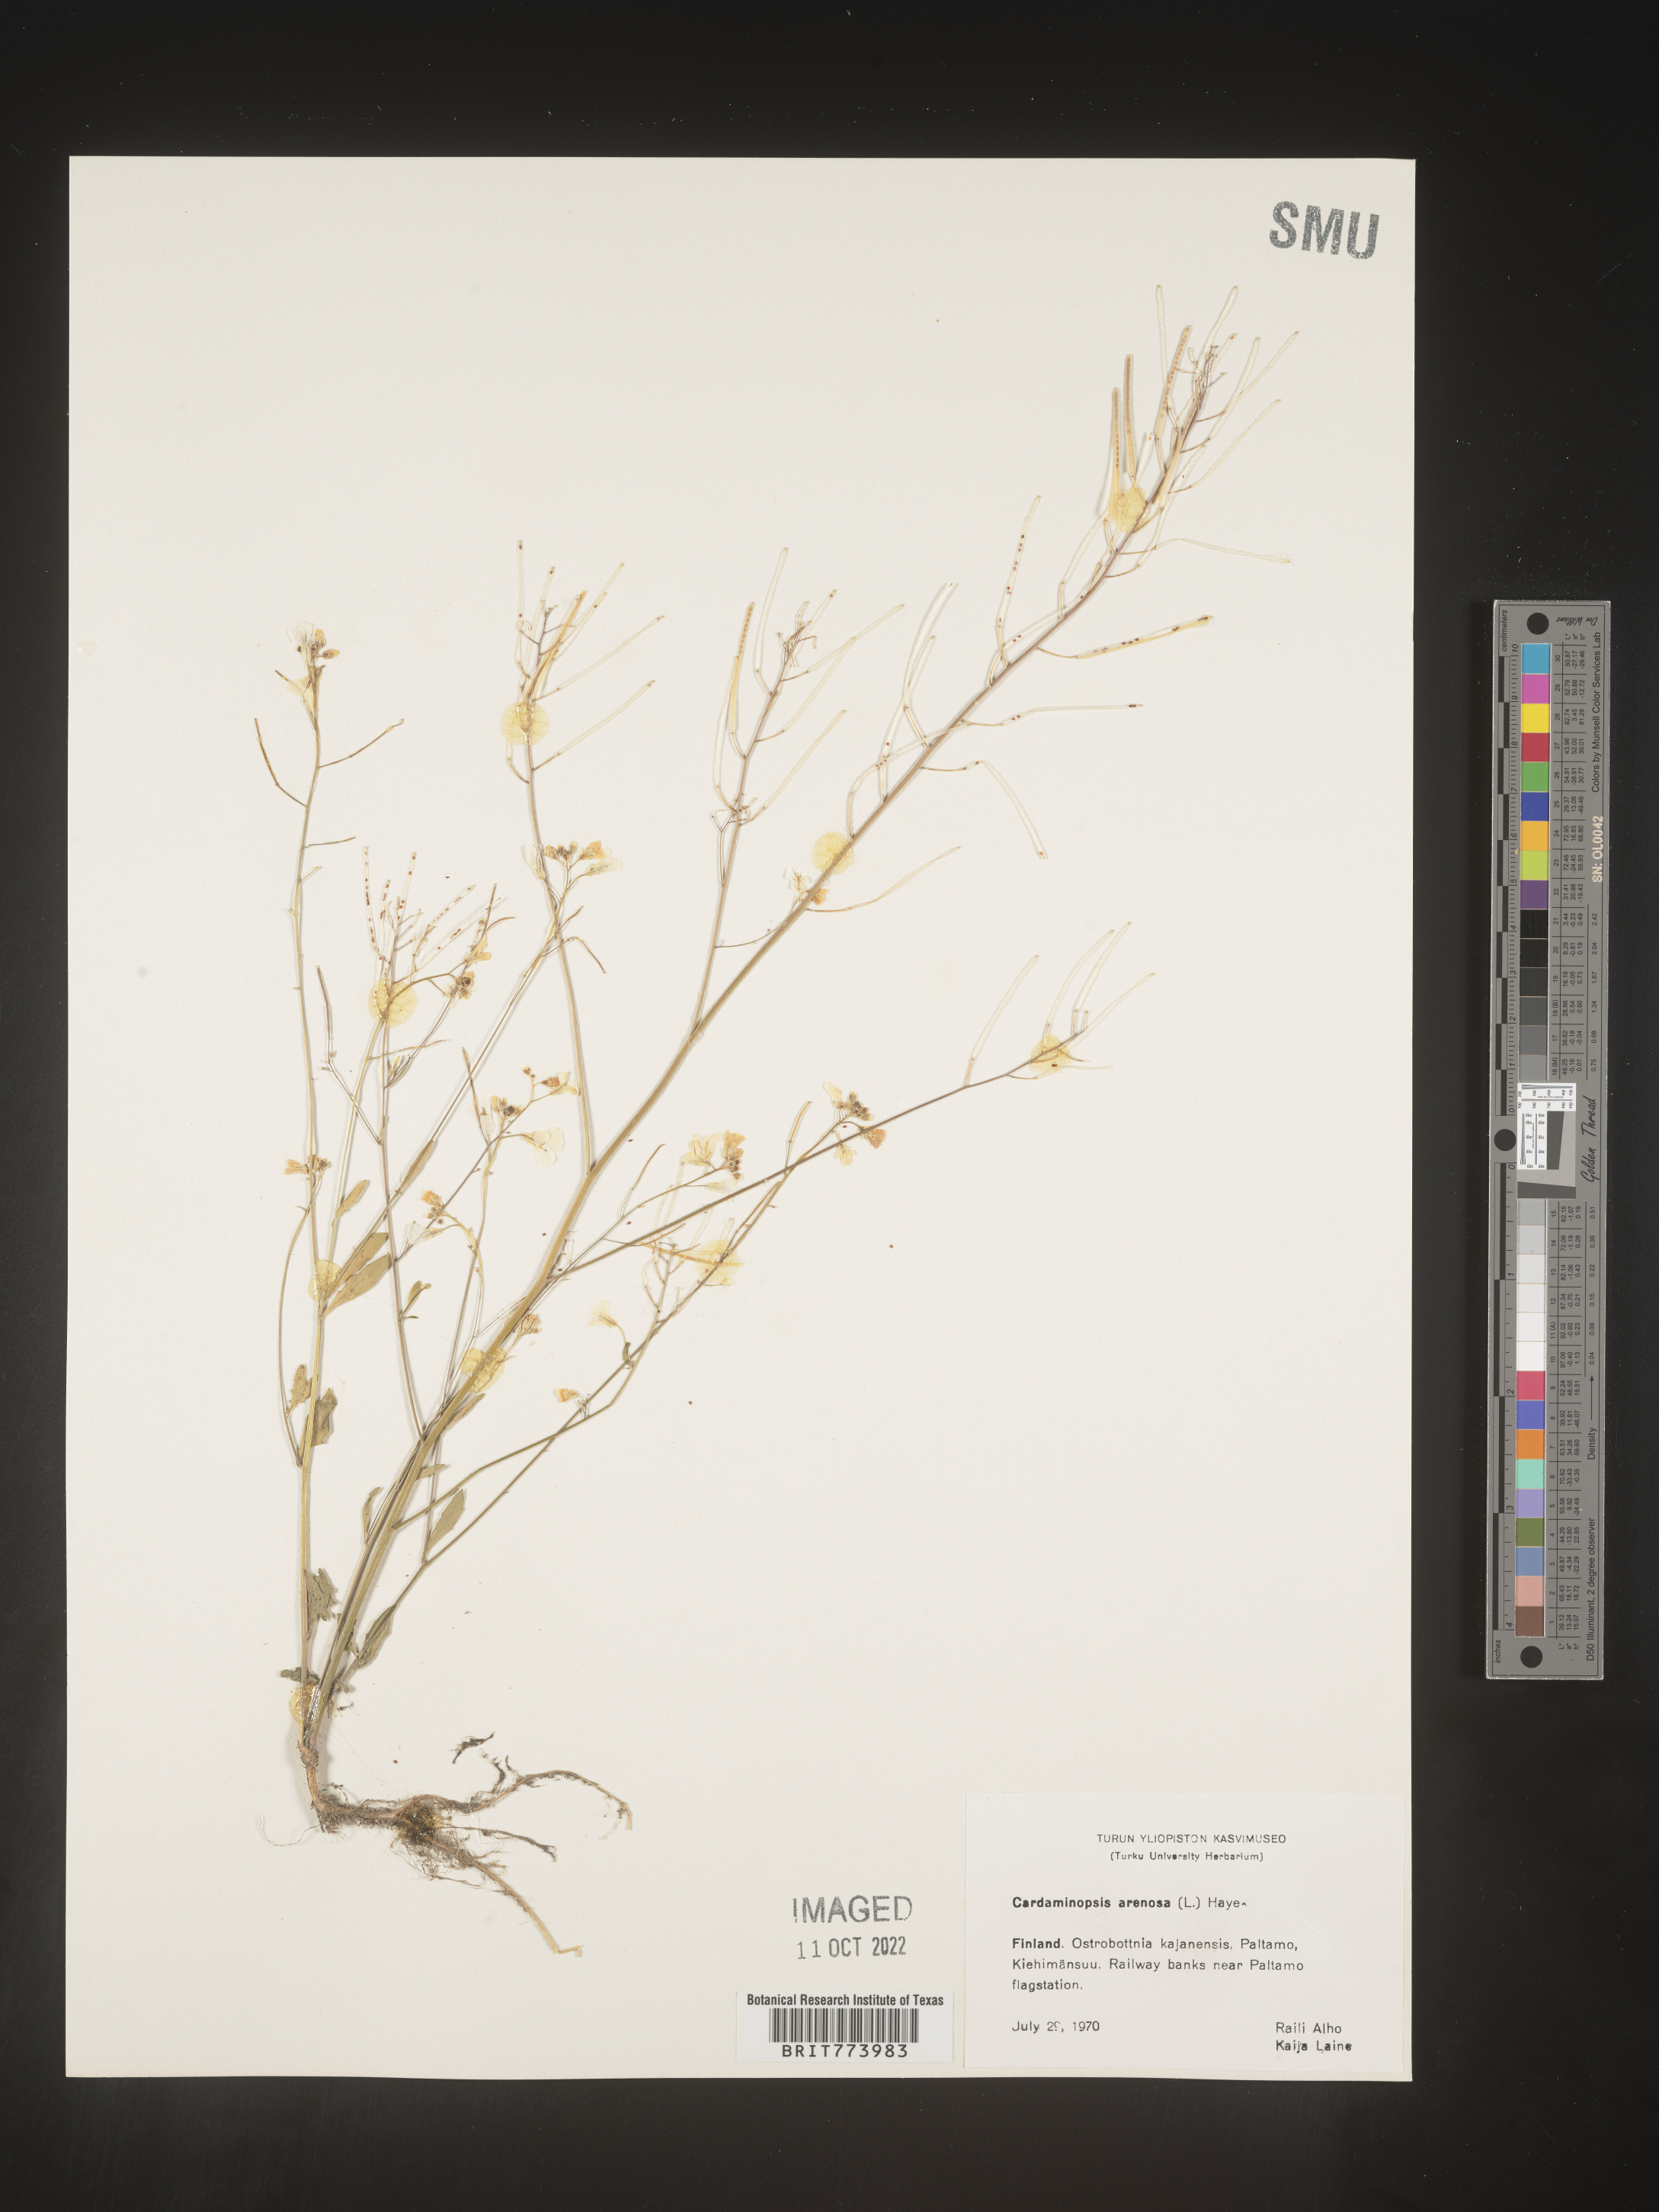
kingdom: Plantae
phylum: Tracheophyta
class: Magnoliopsida
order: Brassicales
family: Brassicaceae
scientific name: Brassicaceae
